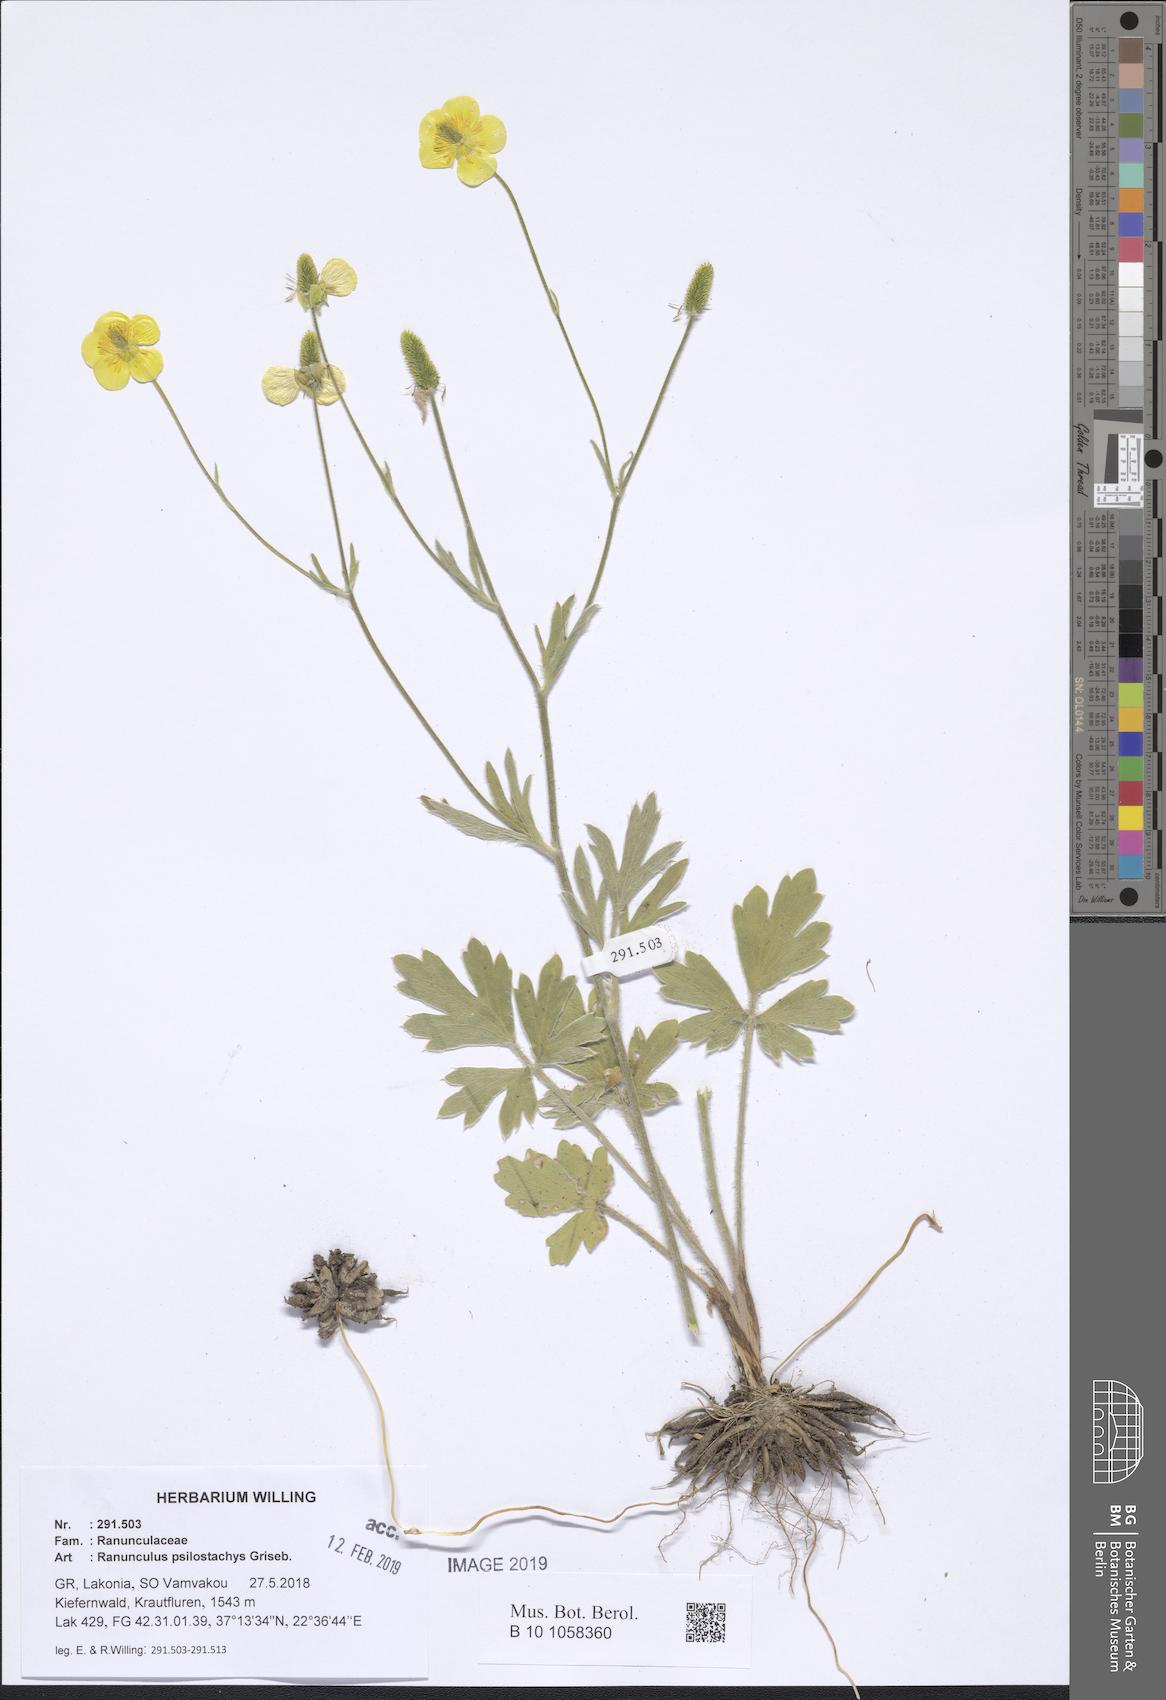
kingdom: Plantae
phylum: Tracheophyta
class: Magnoliopsida
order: Ranunculales
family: Ranunculaceae
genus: Ranunculus
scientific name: Ranunculus psilostachys
